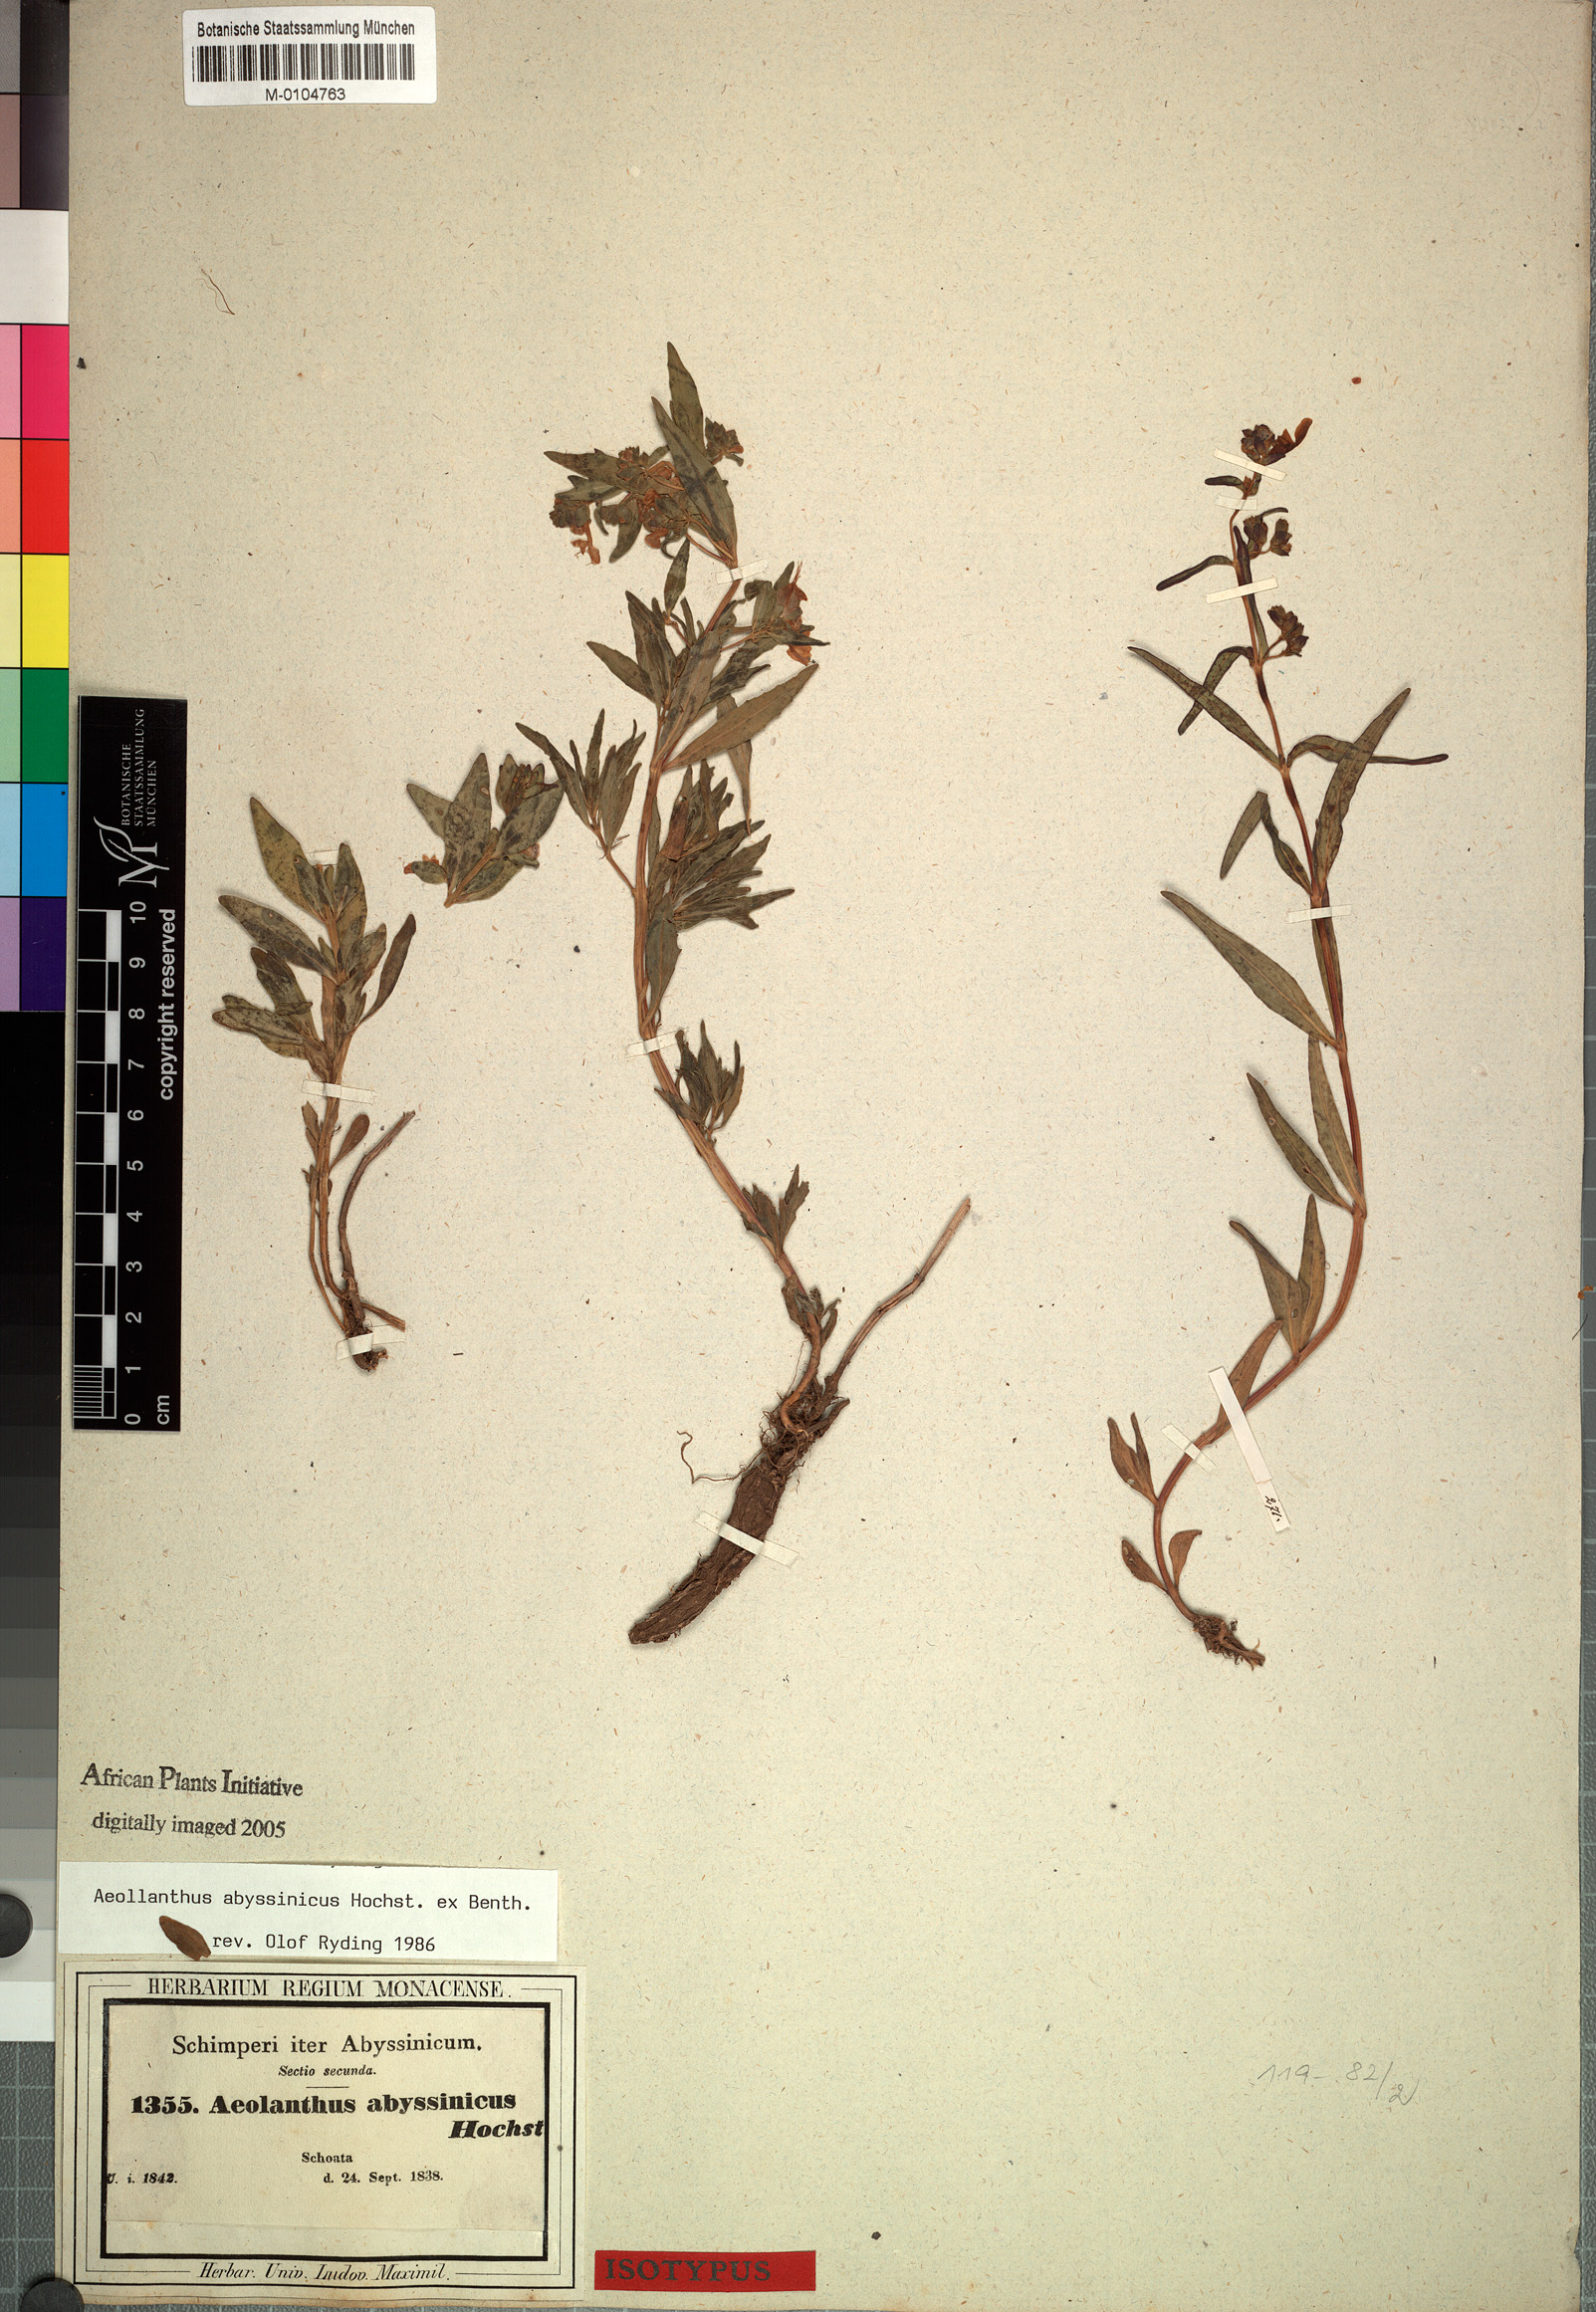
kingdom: Plantae
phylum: Tracheophyta
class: Magnoliopsida
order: Lamiales
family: Lamiaceae
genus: Aeollanthus
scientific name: Aeollanthus abyssinicus
